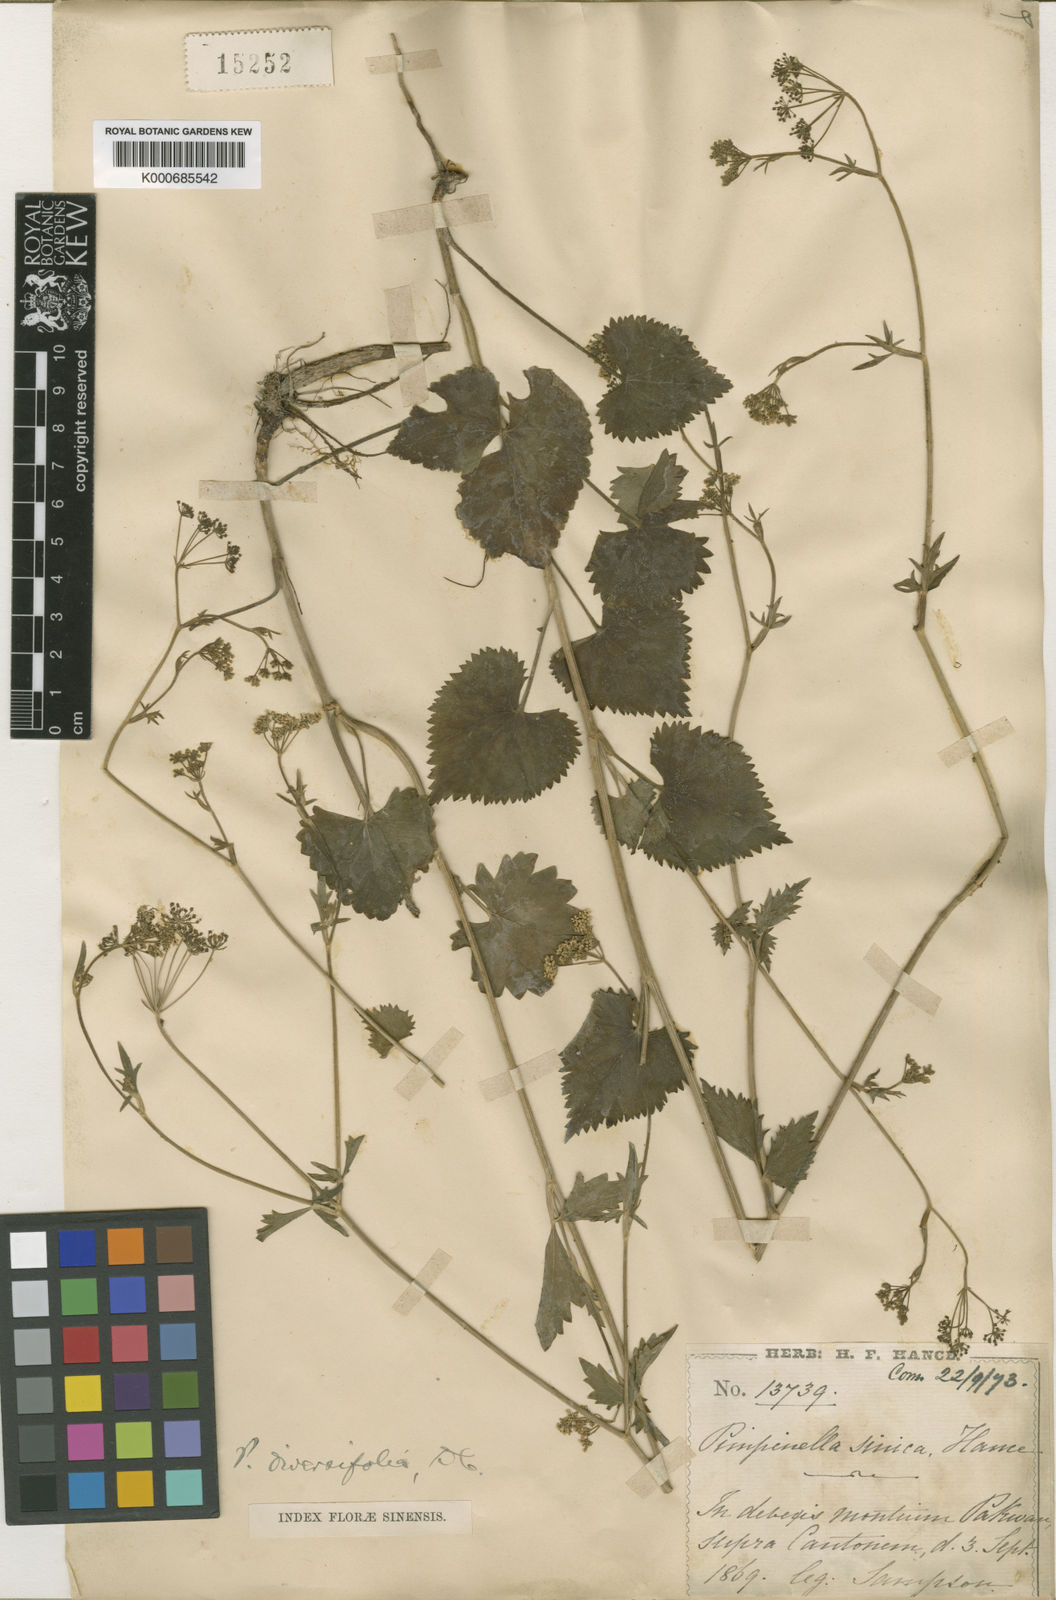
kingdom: Plantae
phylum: Tracheophyta
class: Magnoliopsida
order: Apiales
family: Apiaceae
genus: Pimpinella
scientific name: Pimpinella diversifolia
